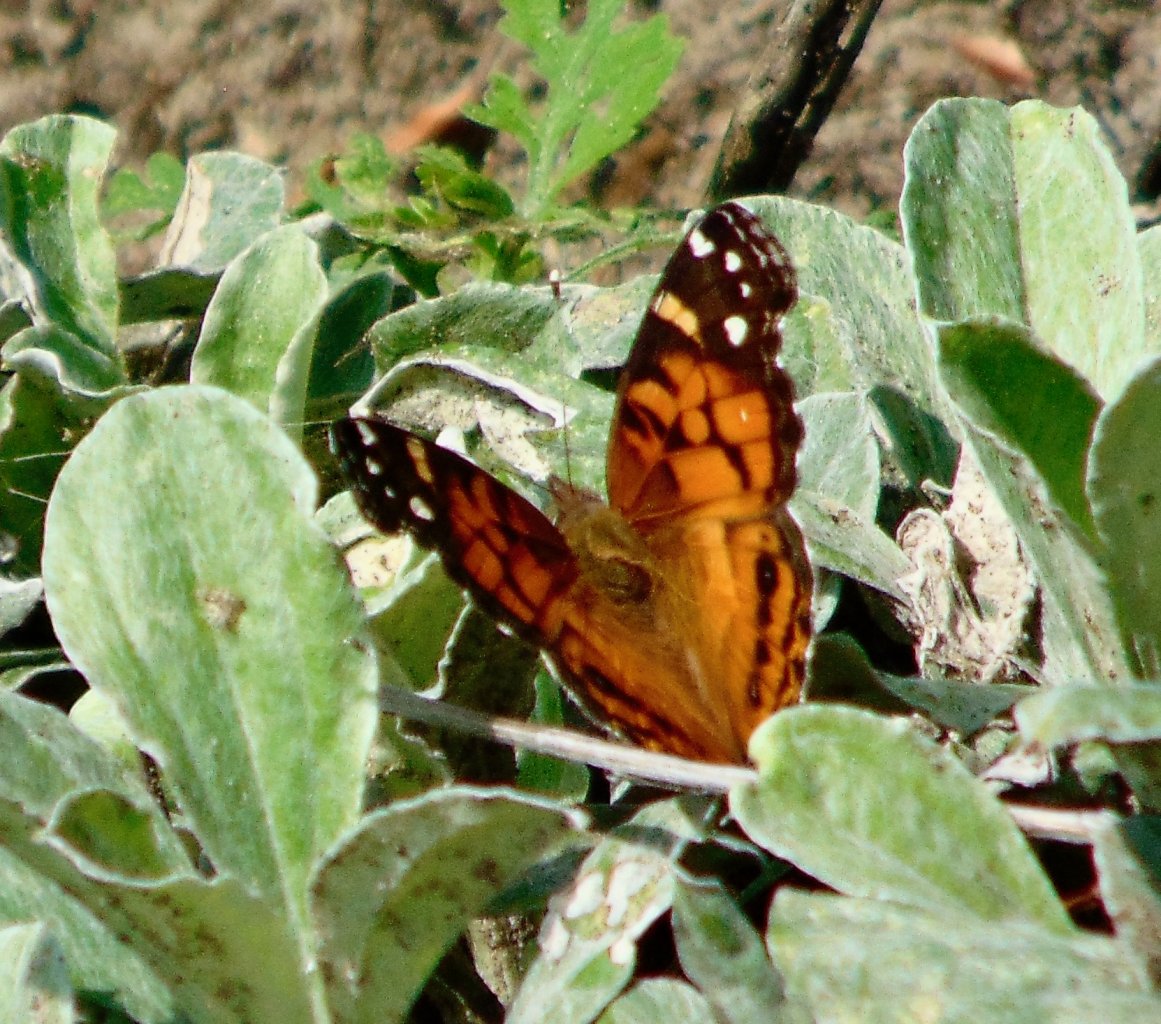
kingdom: Animalia
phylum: Arthropoda
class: Insecta
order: Lepidoptera
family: Nymphalidae
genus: Vanessa
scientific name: Vanessa virginiensis
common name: American Lady
